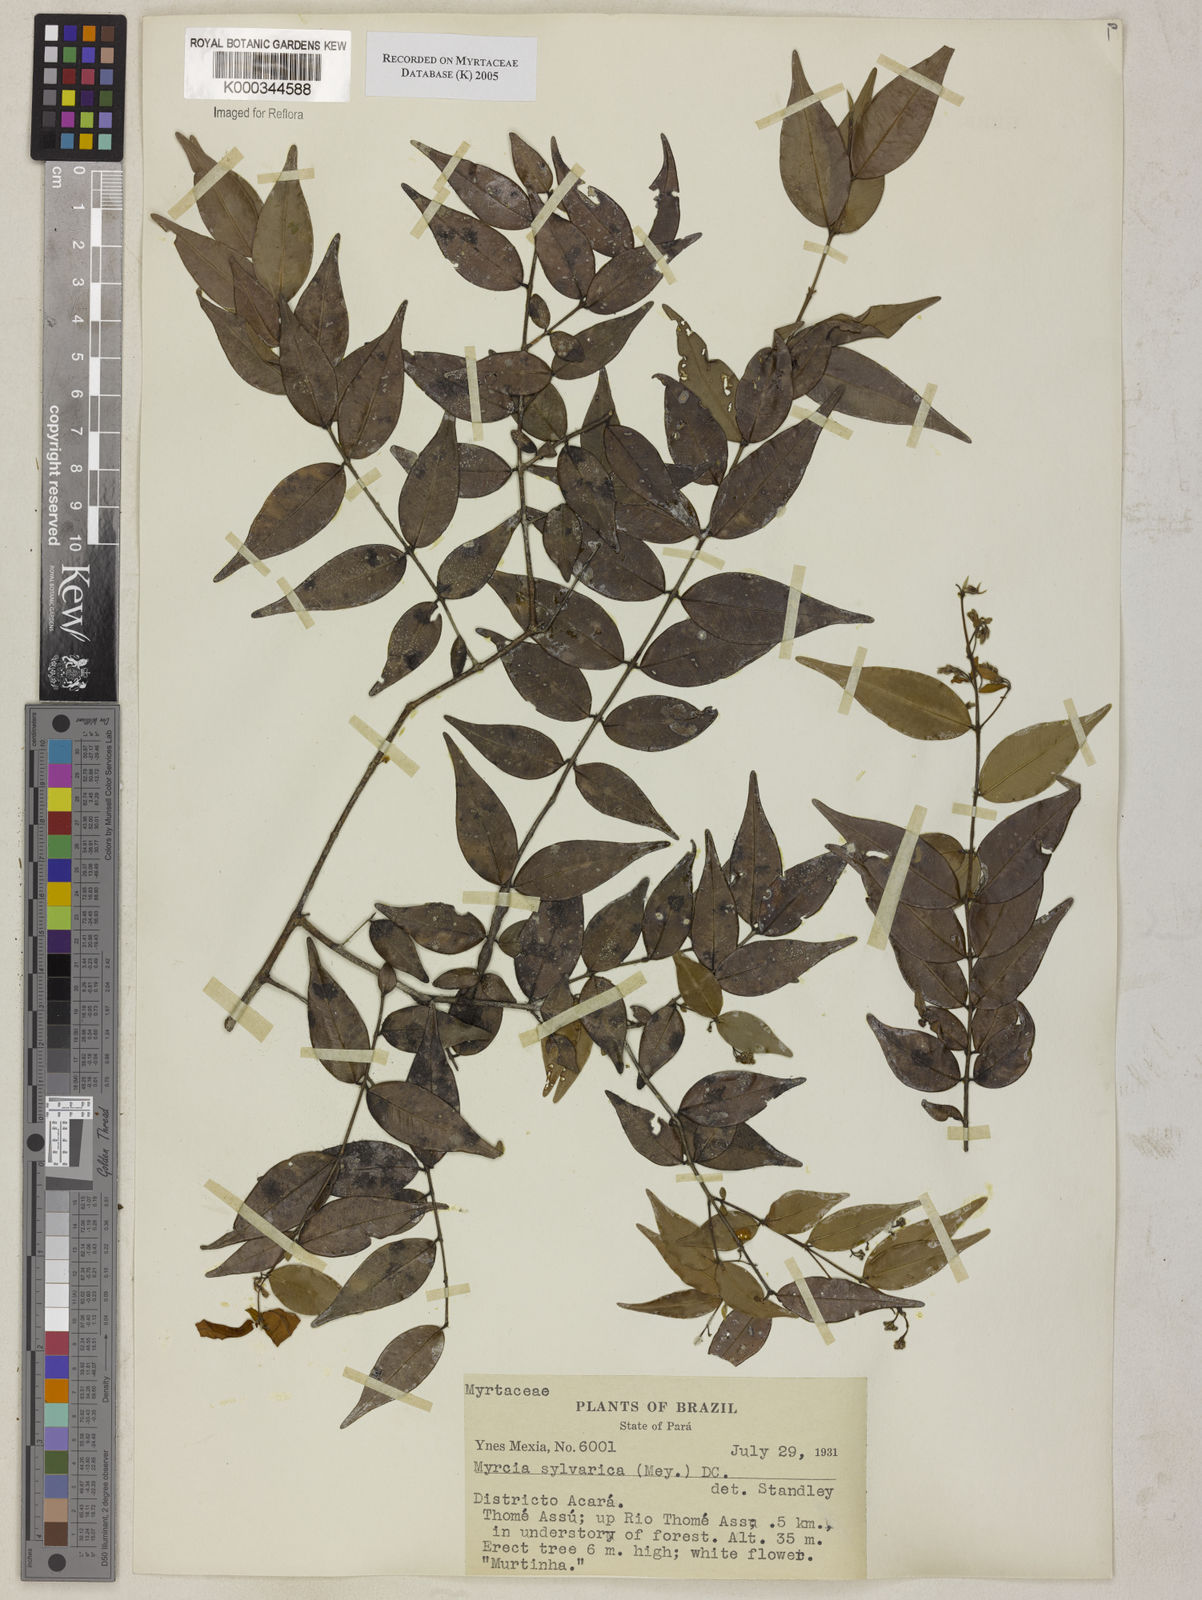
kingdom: Plantae
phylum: Tracheophyta
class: Magnoliopsida
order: Myrtales
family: Myrtaceae
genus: Myrcia
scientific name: Myrcia sylvatica
